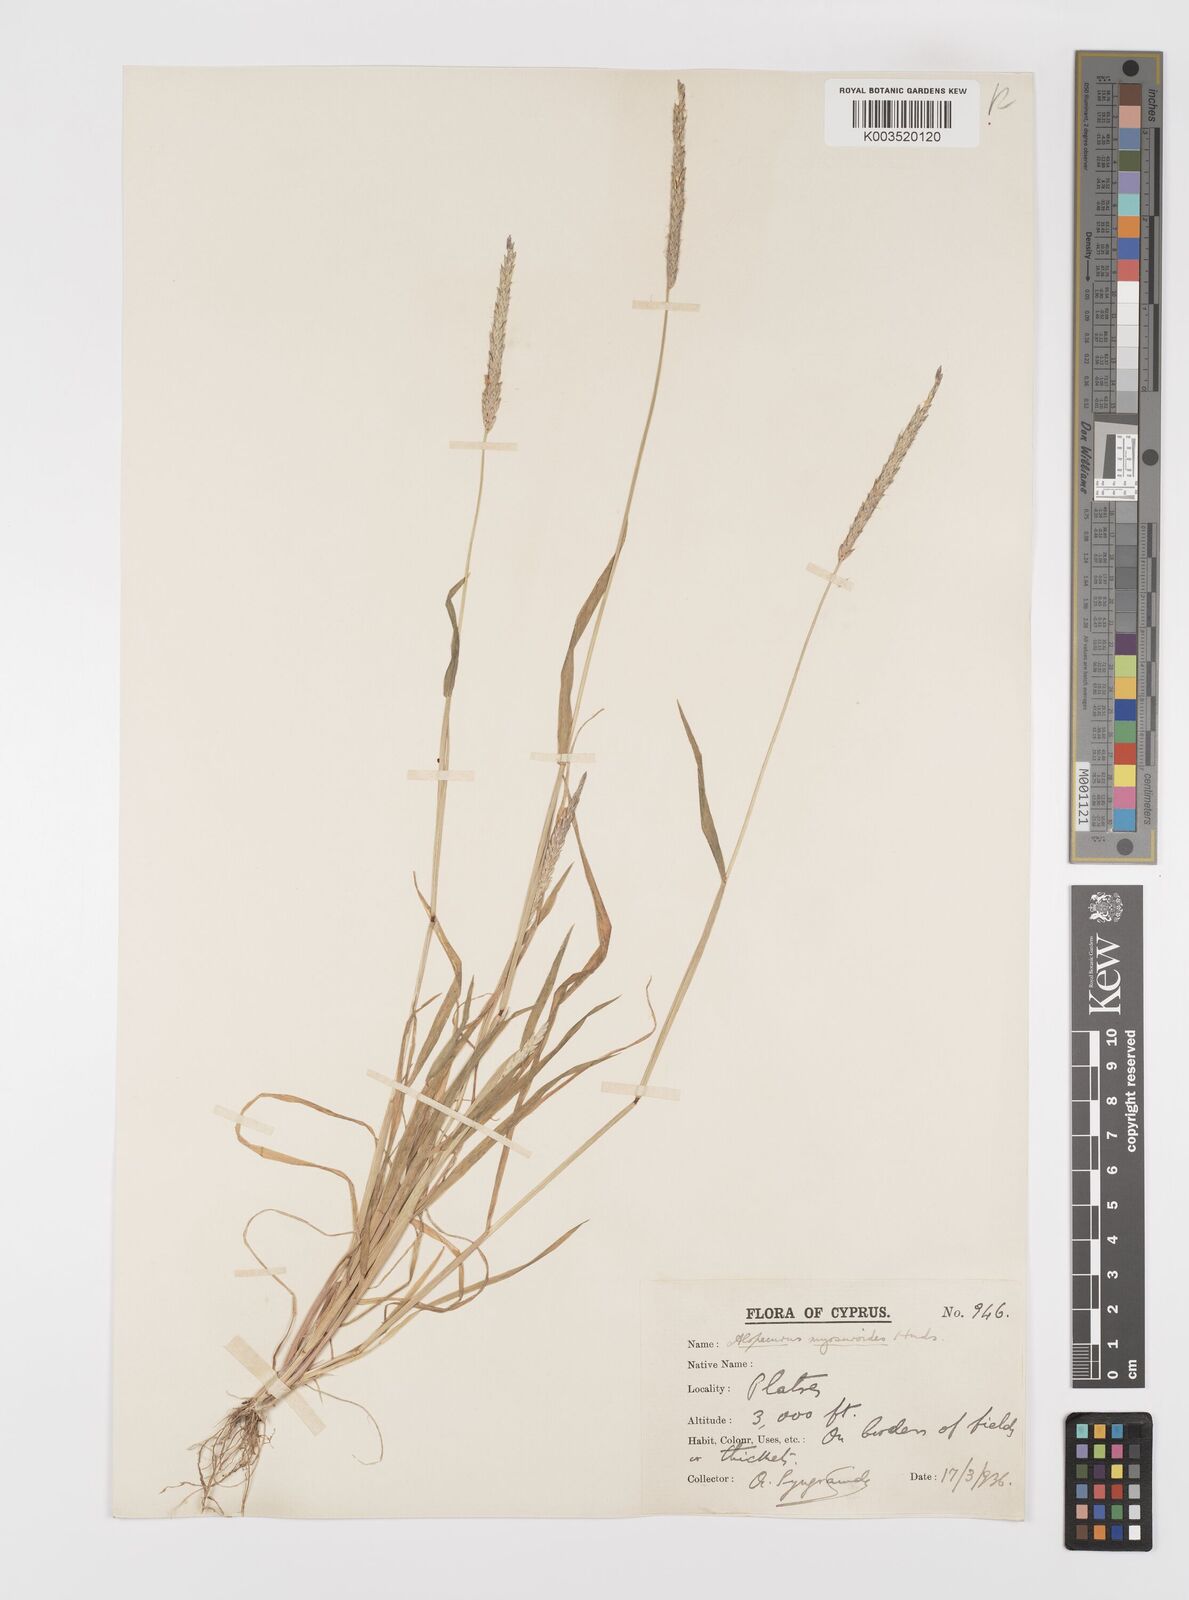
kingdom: Plantae
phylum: Tracheophyta
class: Liliopsida
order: Poales
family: Poaceae
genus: Alopecurus
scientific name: Alopecurus myosuroides
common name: Black-grass
